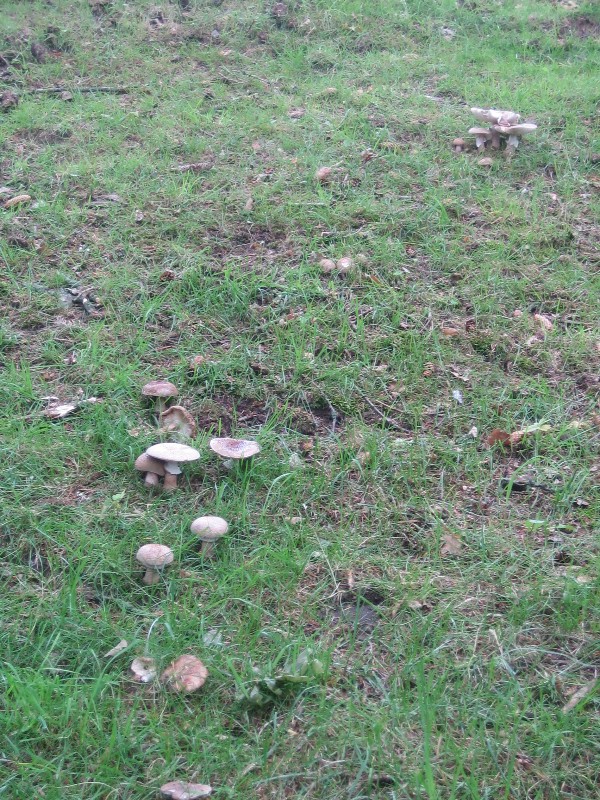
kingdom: Fungi
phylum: Basidiomycota
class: Agaricomycetes
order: Agaricales
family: Amanitaceae
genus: Amanita
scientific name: Amanita rubescens
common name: rødmende fluesvamp
